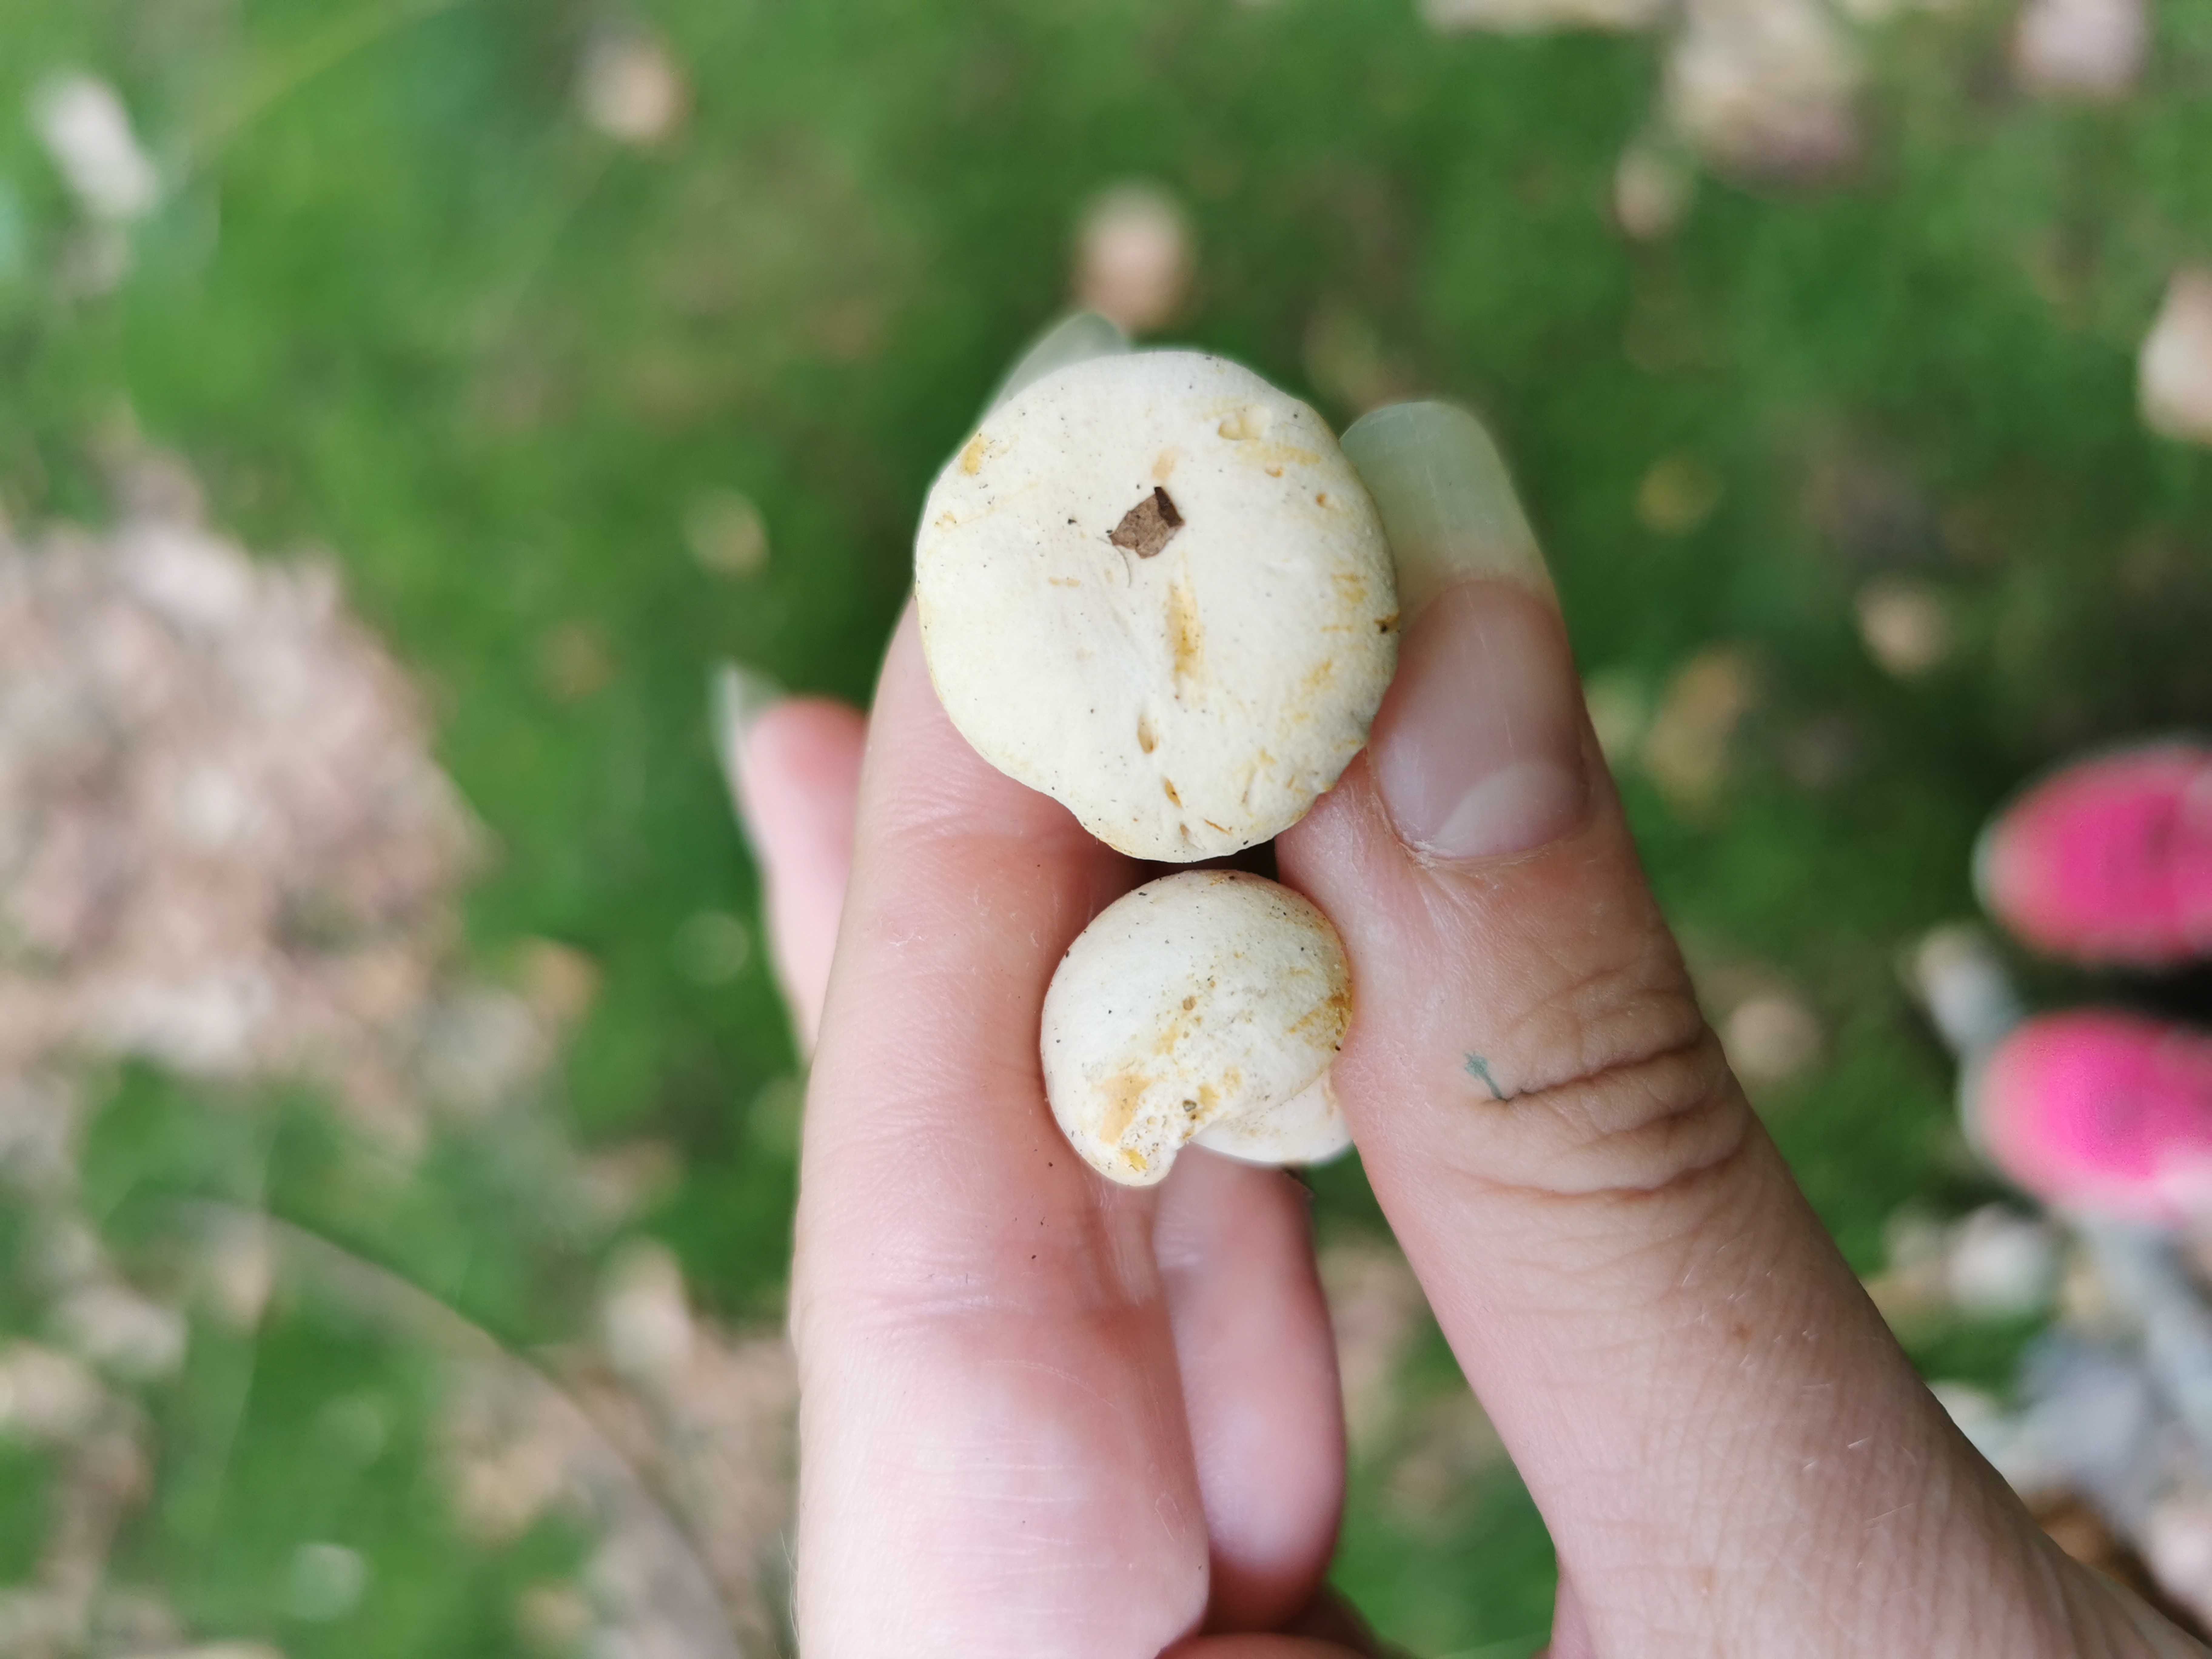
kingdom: Fungi
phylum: Basidiomycota
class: Agaricomycetes
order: Cantharellales
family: Hydnaceae
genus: Cantharellus
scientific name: Cantharellus pallens
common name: bleg kantarel
